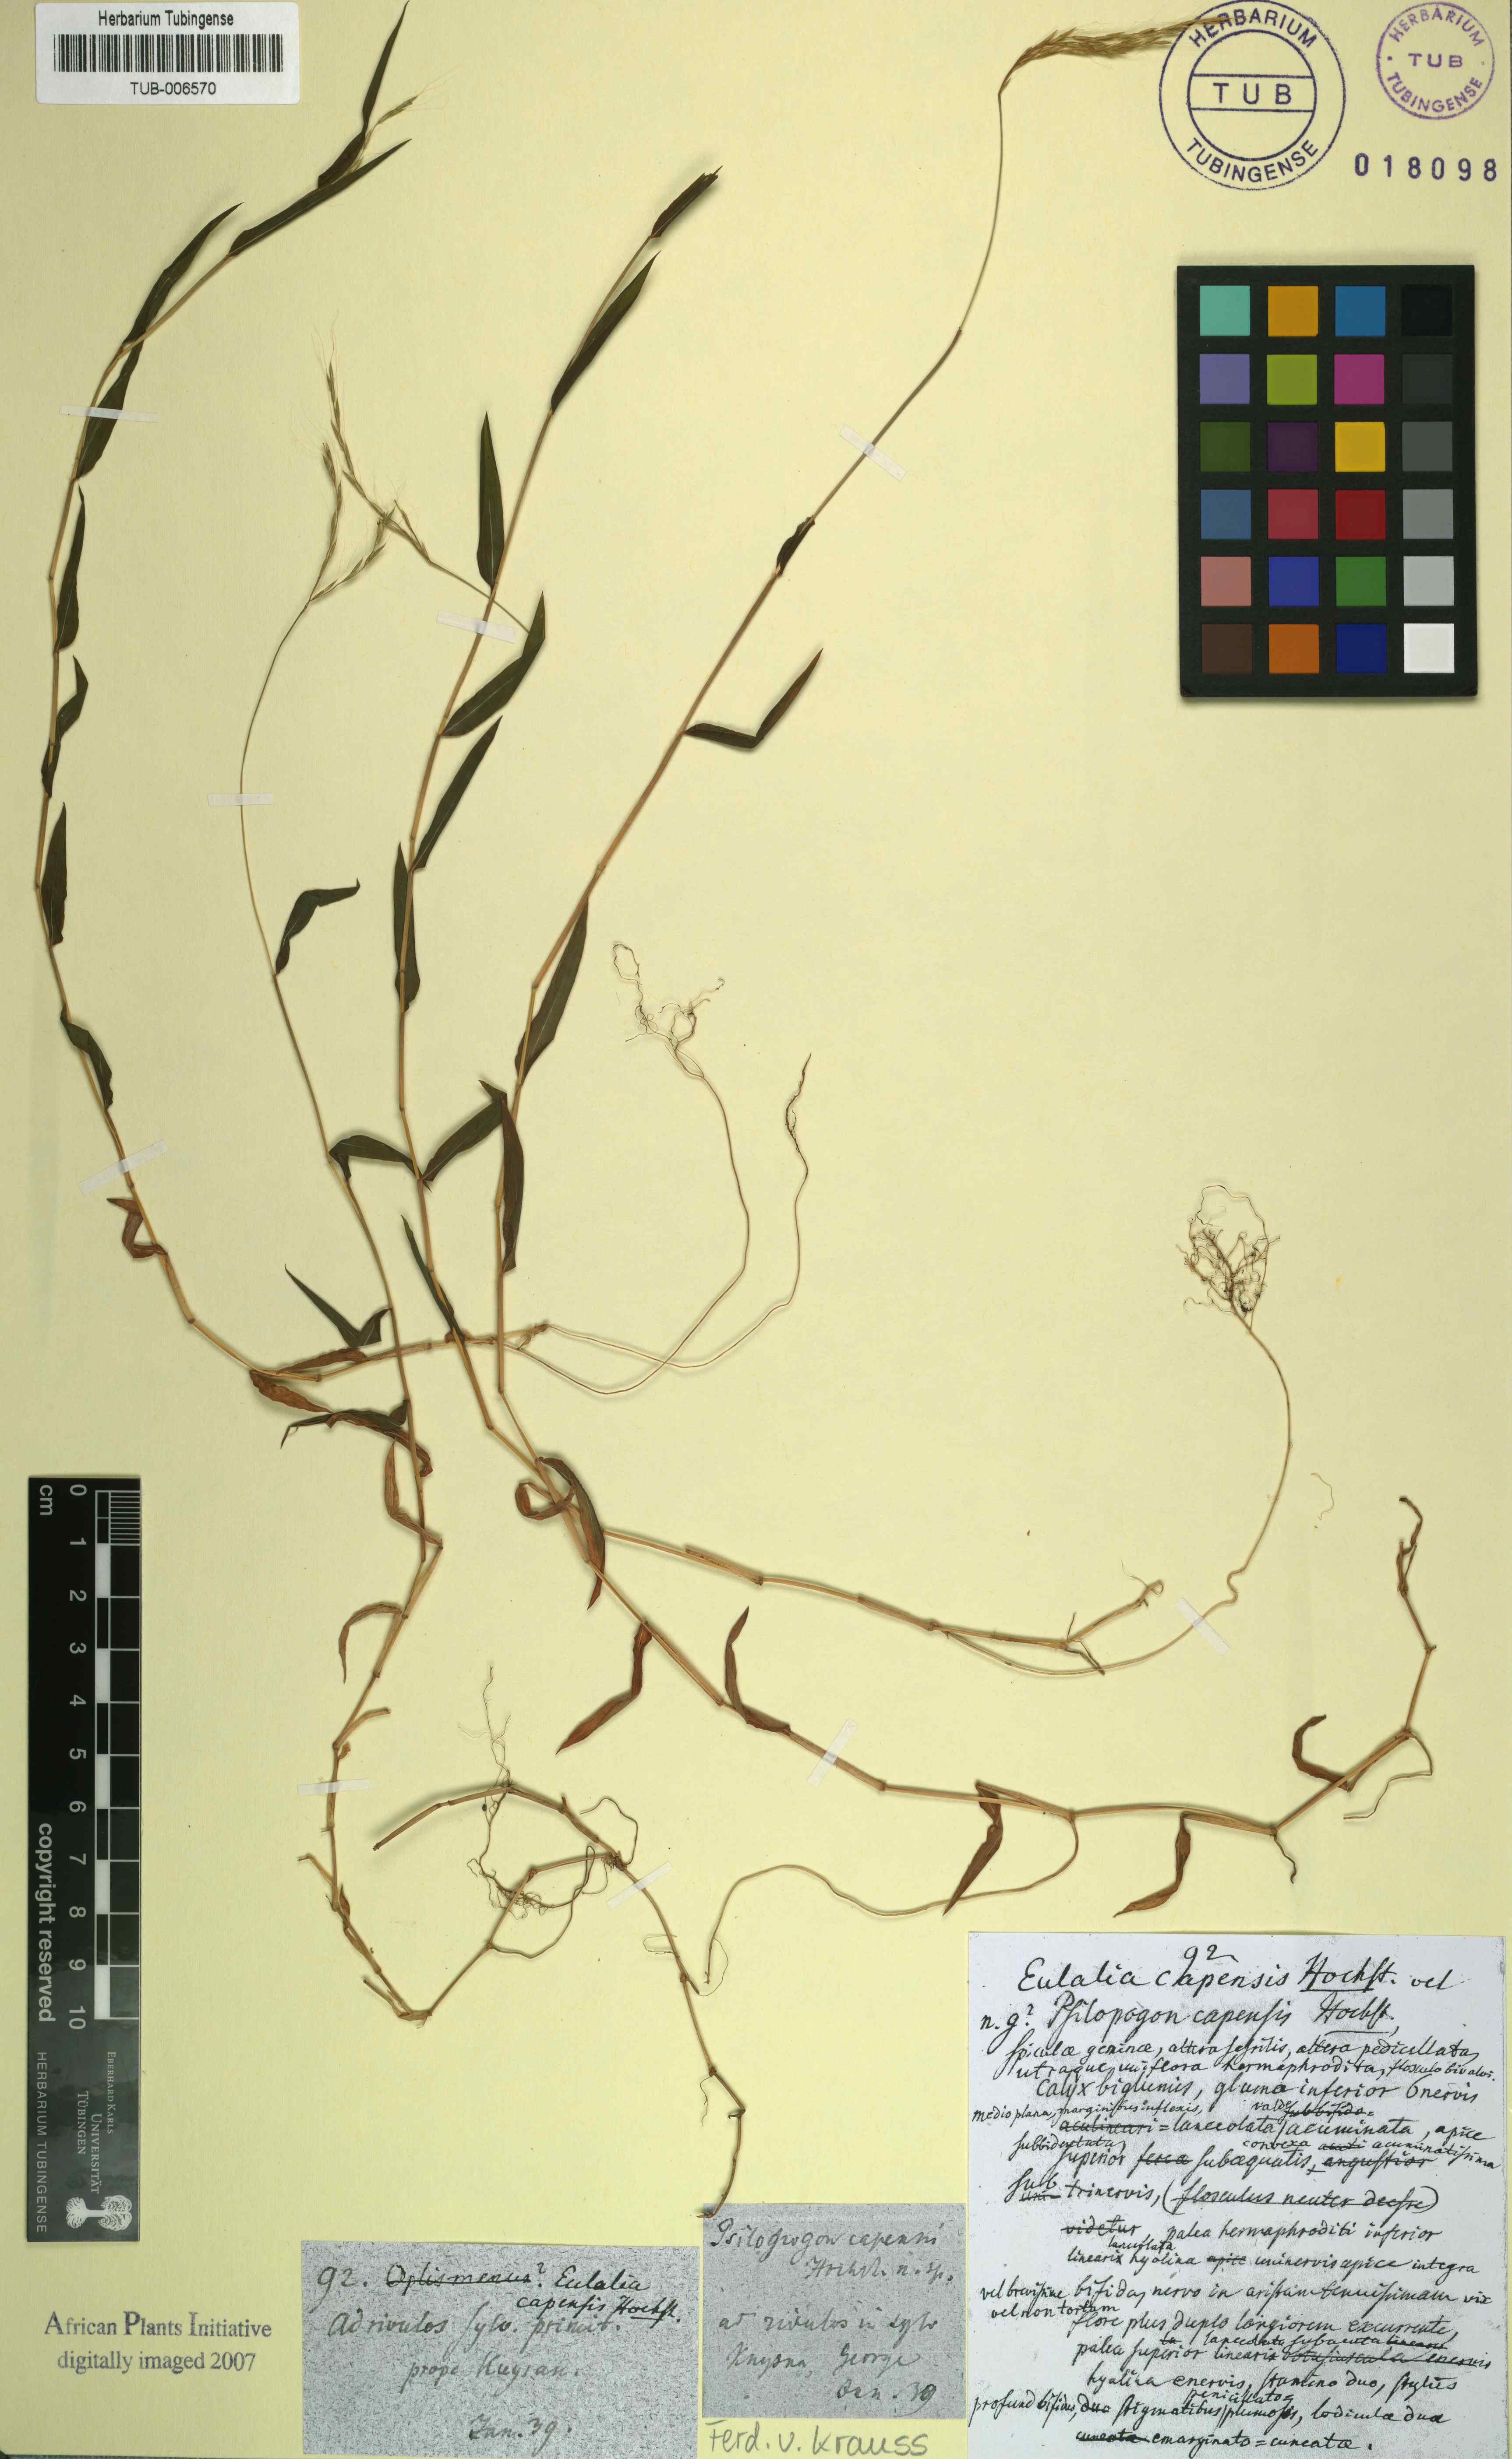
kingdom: Plantae
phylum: Tracheophyta
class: Liliopsida
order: Poales
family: Poaceae
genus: Microstegium
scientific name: Microstegium nudum
